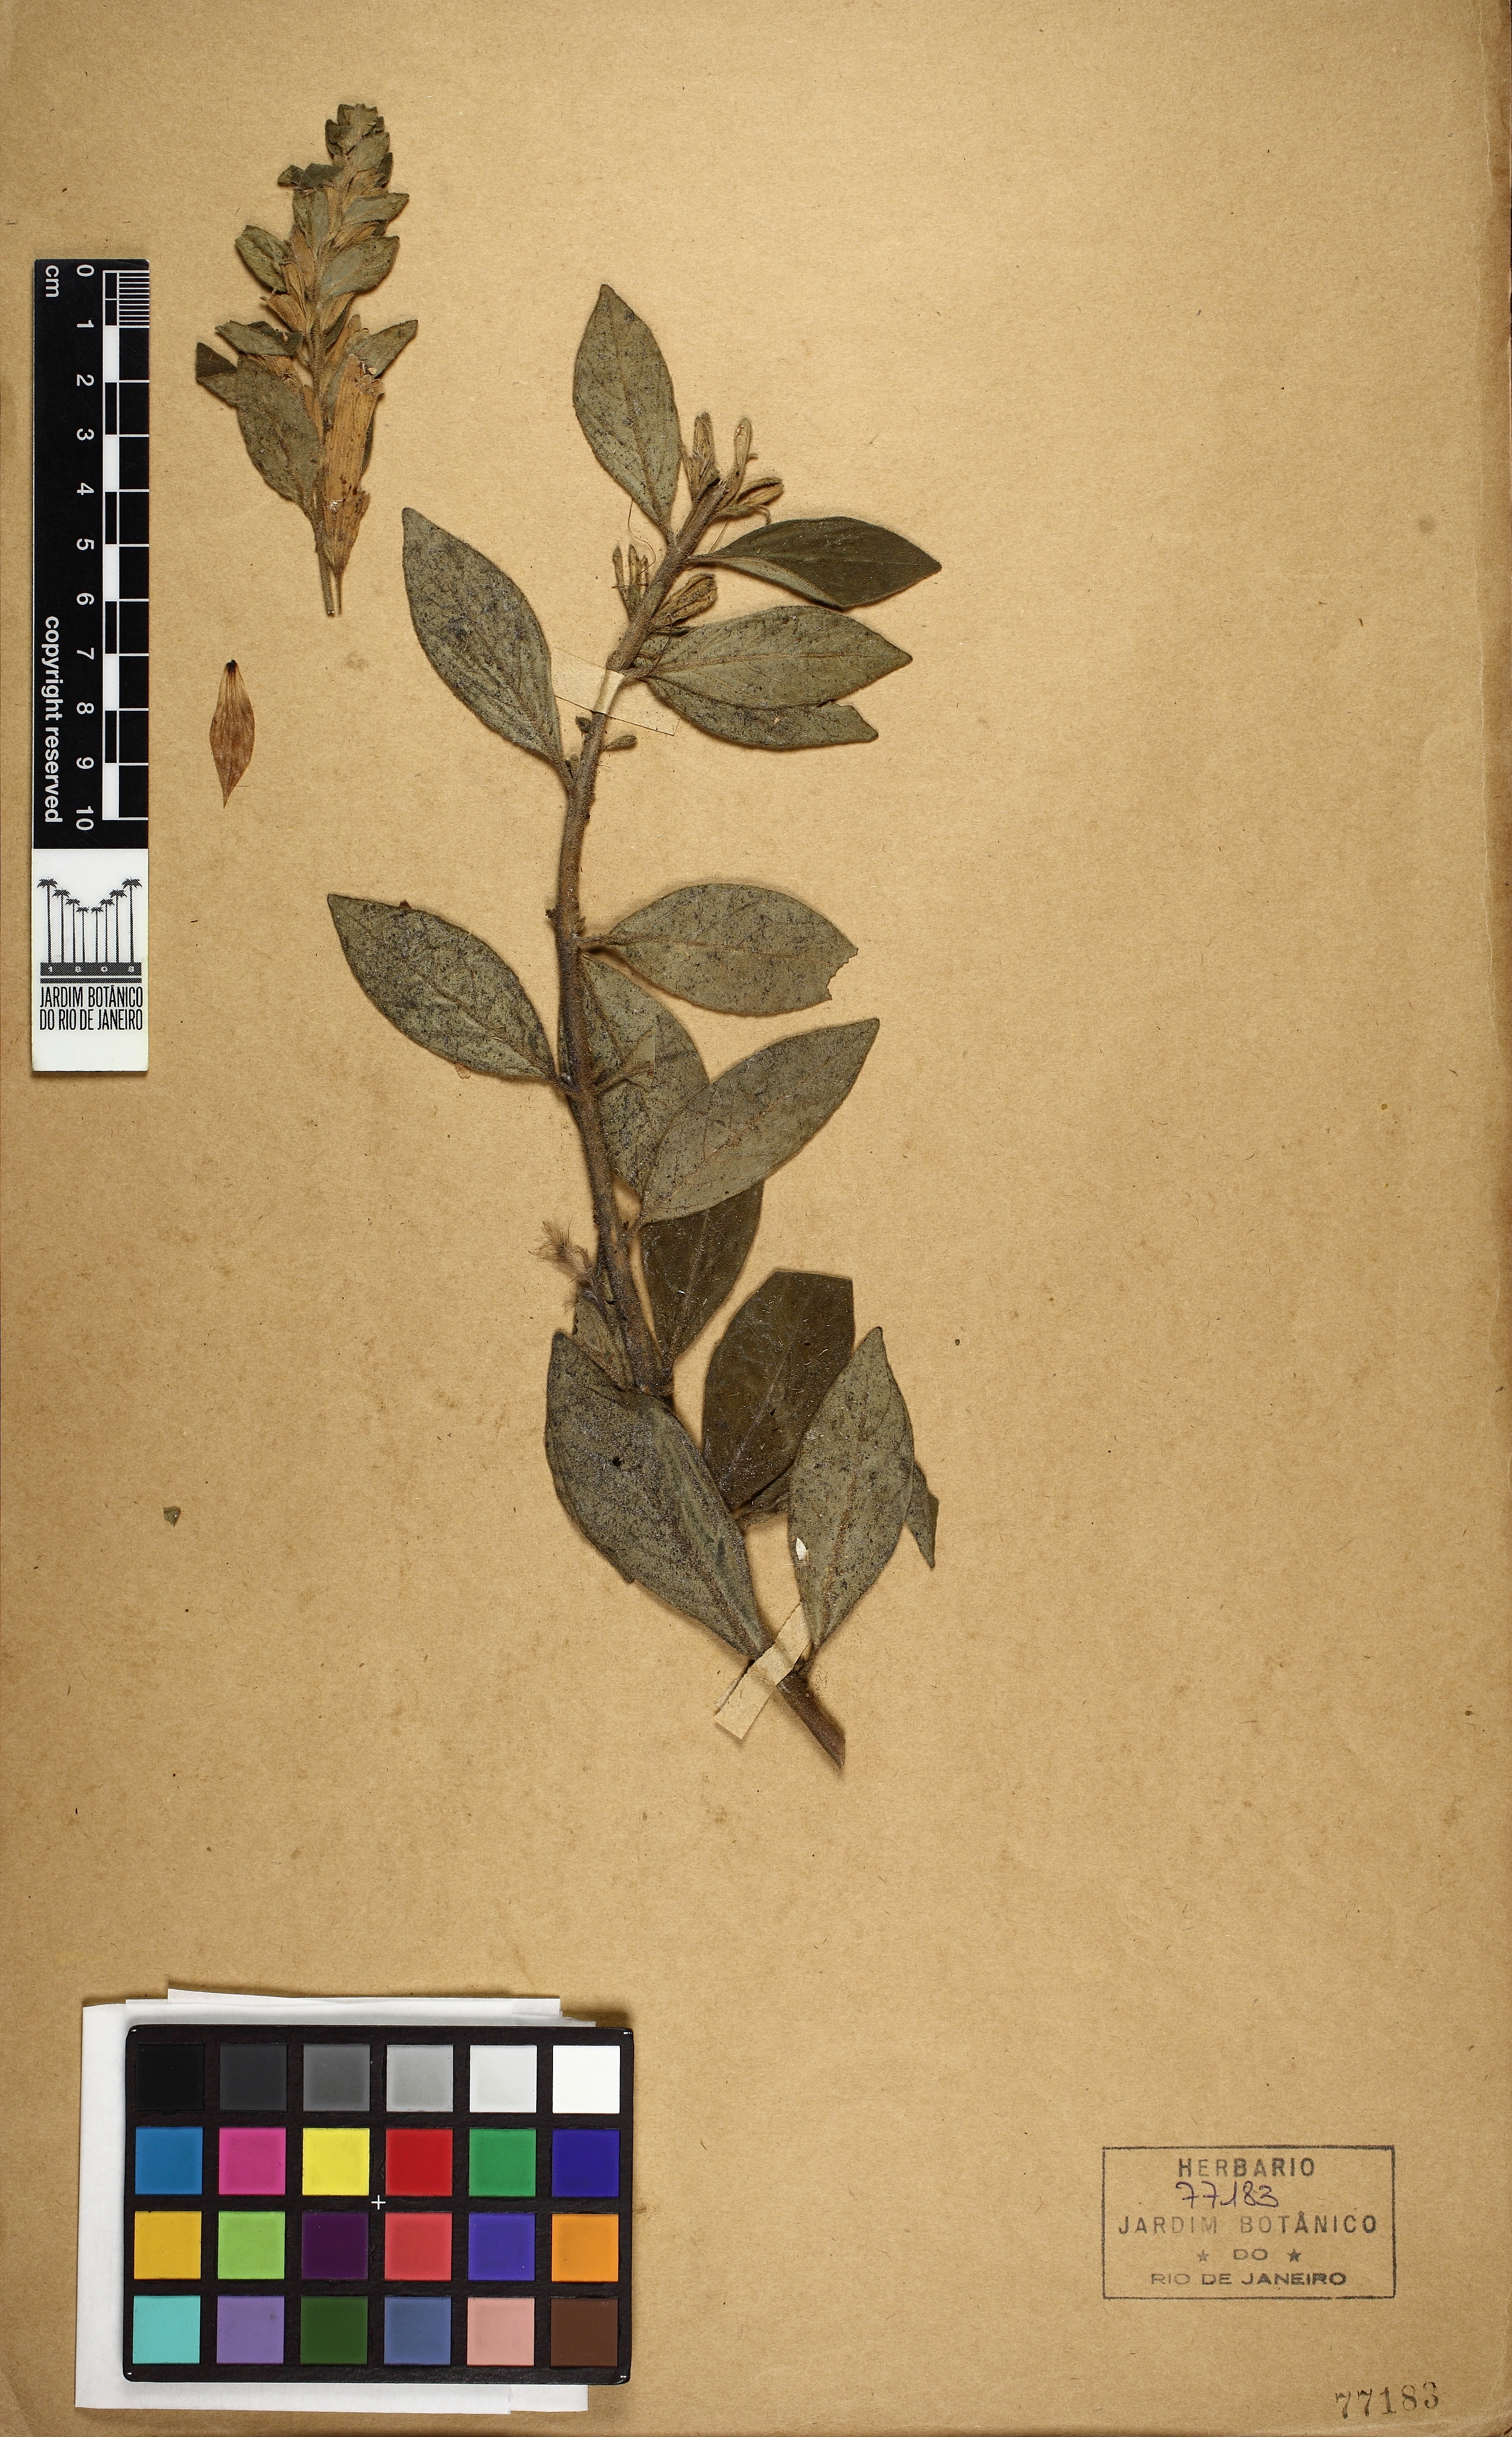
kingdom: Plantae
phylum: Tracheophyta
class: Magnoliopsida
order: Lamiales
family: Acanthaceae
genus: Staurogyne
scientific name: Staurogyne hirsuta
